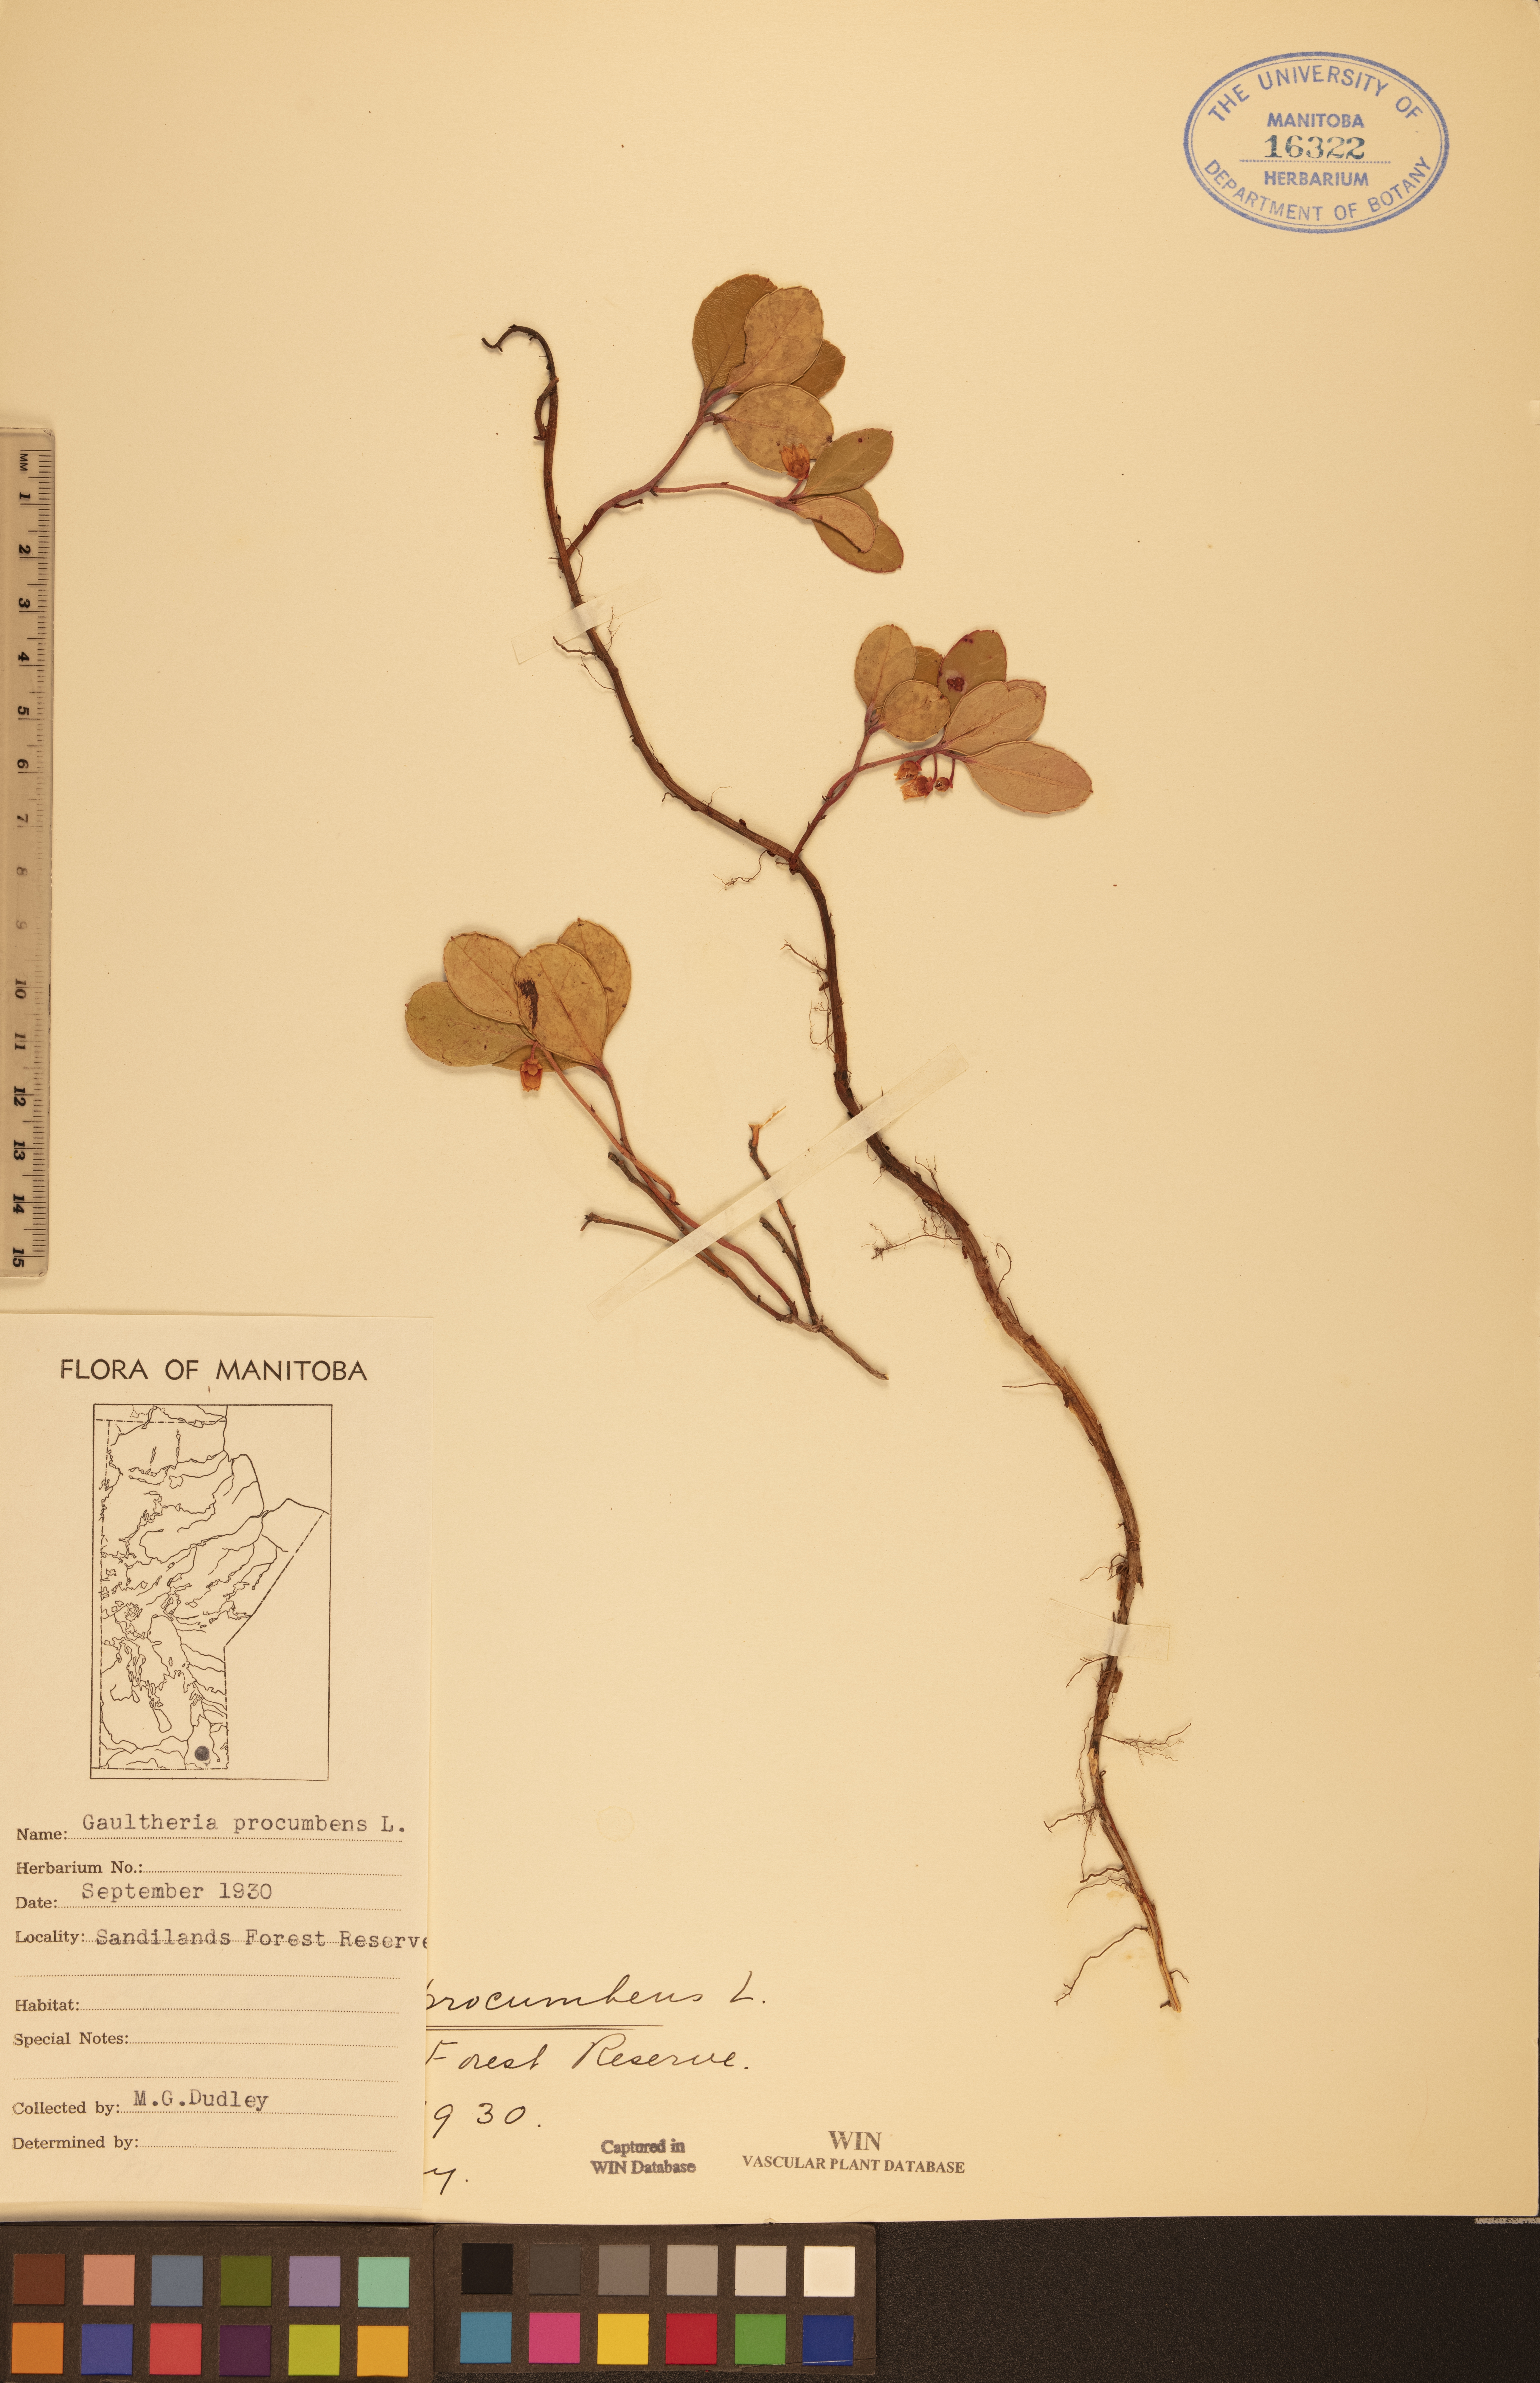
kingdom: Plantae
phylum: Tracheophyta
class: Magnoliopsida
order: Ericales
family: Ericaceae
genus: Gaultheria
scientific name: Gaultheria procumbens
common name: Checkerberry
